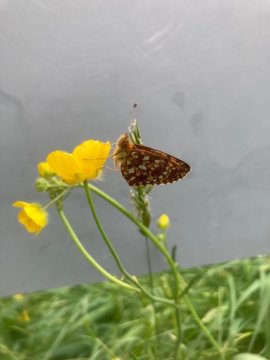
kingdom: Animalia
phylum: Arthropoda
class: Insecta
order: Lepidoptera
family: Nymphalidae
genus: Boloria
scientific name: Boloria
